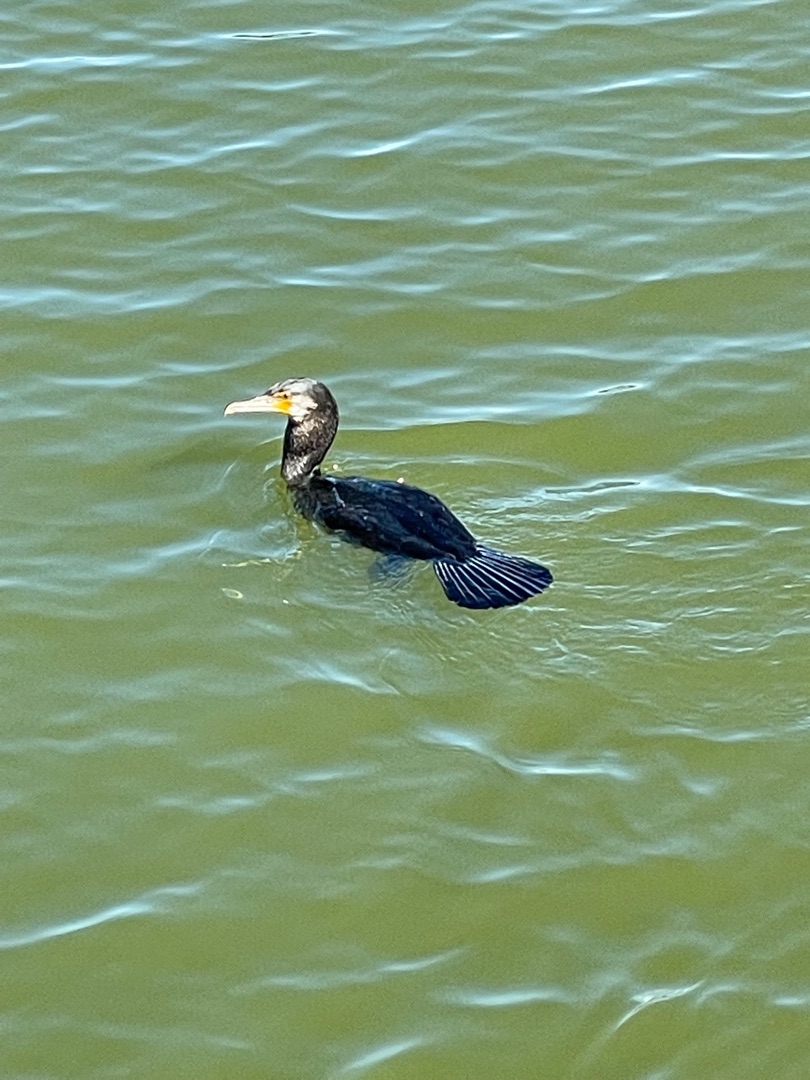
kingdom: Animalia
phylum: Chordata
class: Aves
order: Suliformes
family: Phalacrocoracidae
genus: Phalacrocorax
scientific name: Phalacrocorax carbo
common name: Skarv
